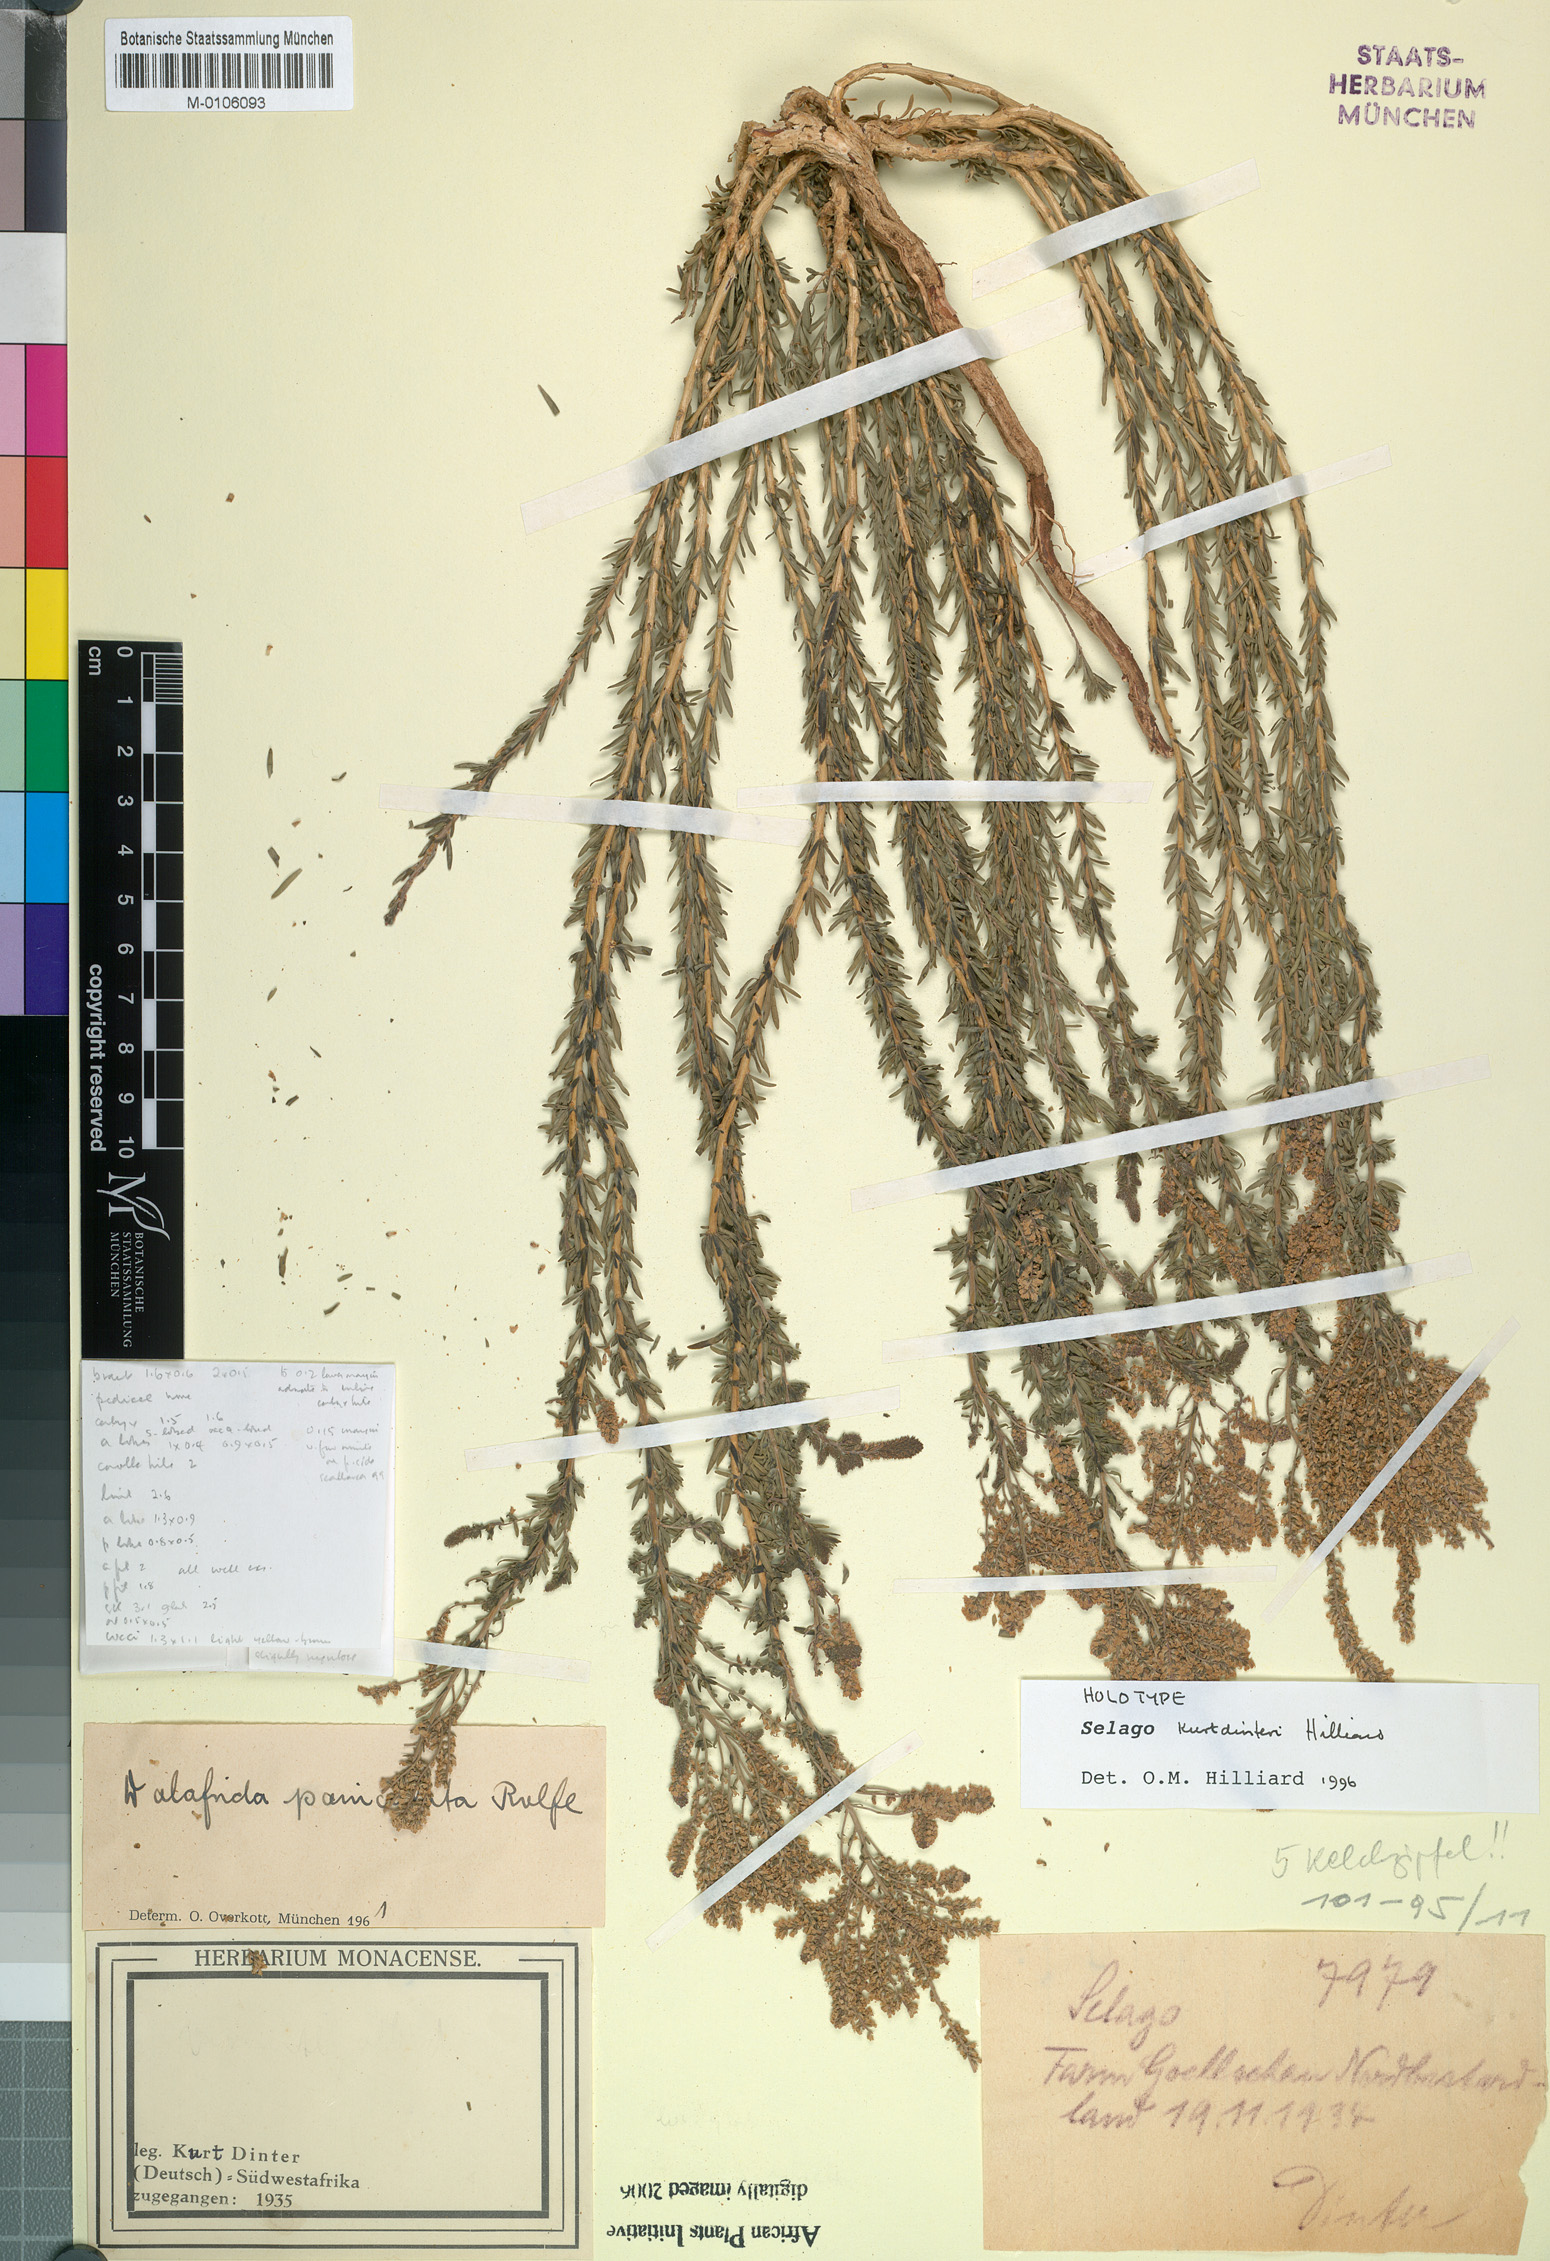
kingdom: Plantae
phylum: Tracheophyta
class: Magnoliopsida
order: Lamiales
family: Scrophulariaceae
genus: Selago
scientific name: Selago kurtdinteri
